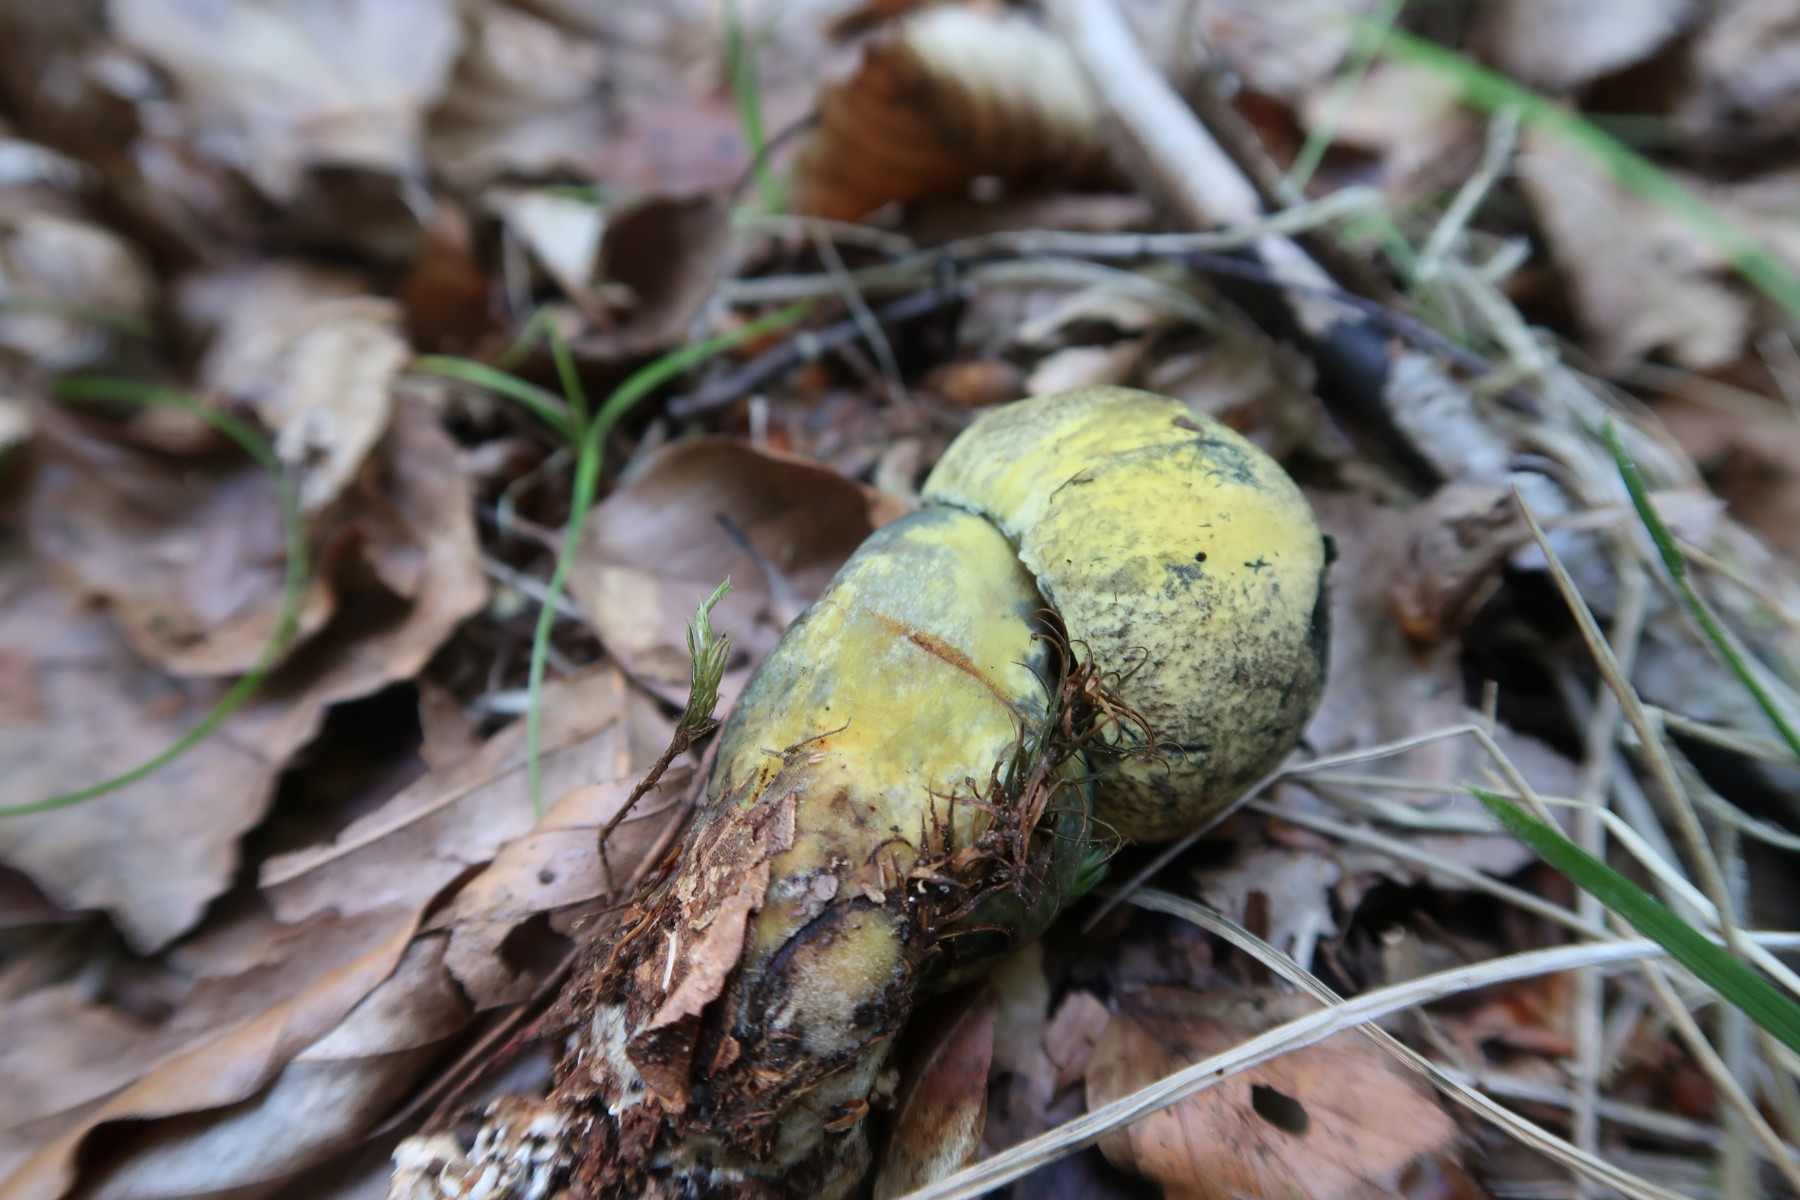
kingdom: Fungi
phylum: Basidiomycota
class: Agaricomycetes
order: Boletales
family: Boletaceae
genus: Neoboletus
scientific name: Neoboletus praestigiator
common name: gul indigorørhat
